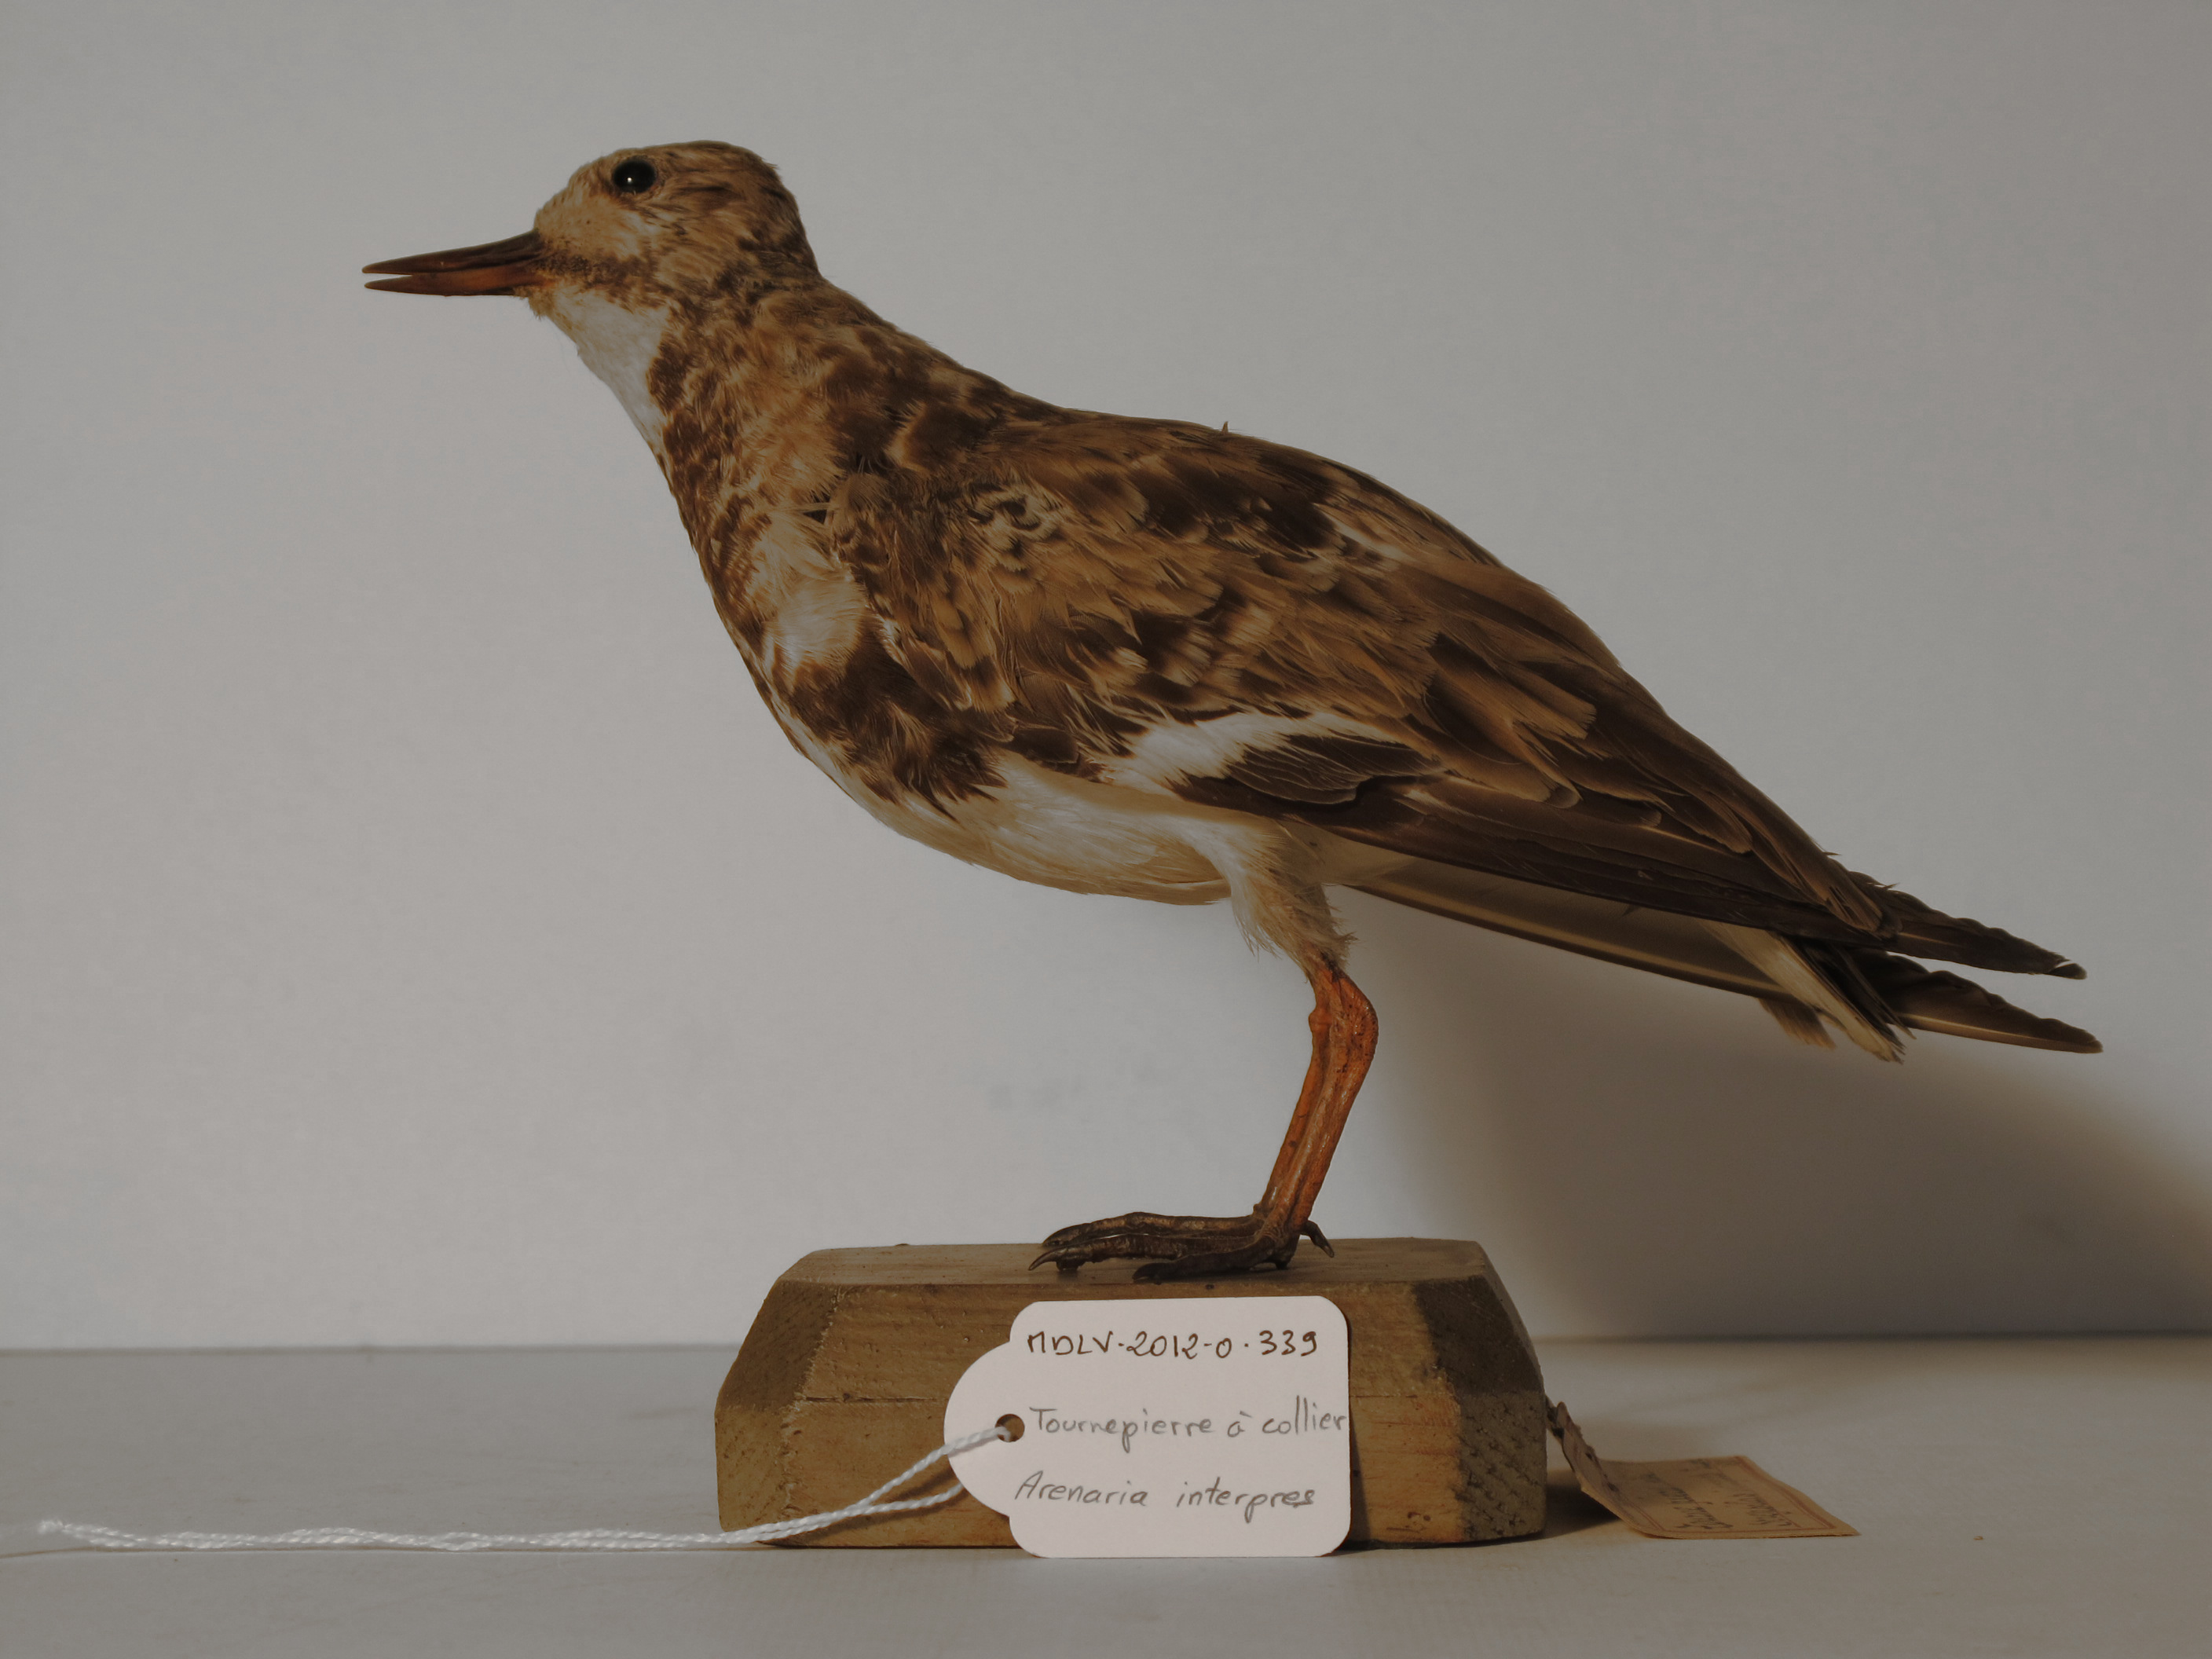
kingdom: Animalia
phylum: Chordata
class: Aves
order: Charadriiformes
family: Scolopacidae
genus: Arenaria
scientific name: Arenaria interpres
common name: Ruddy Turnstone
